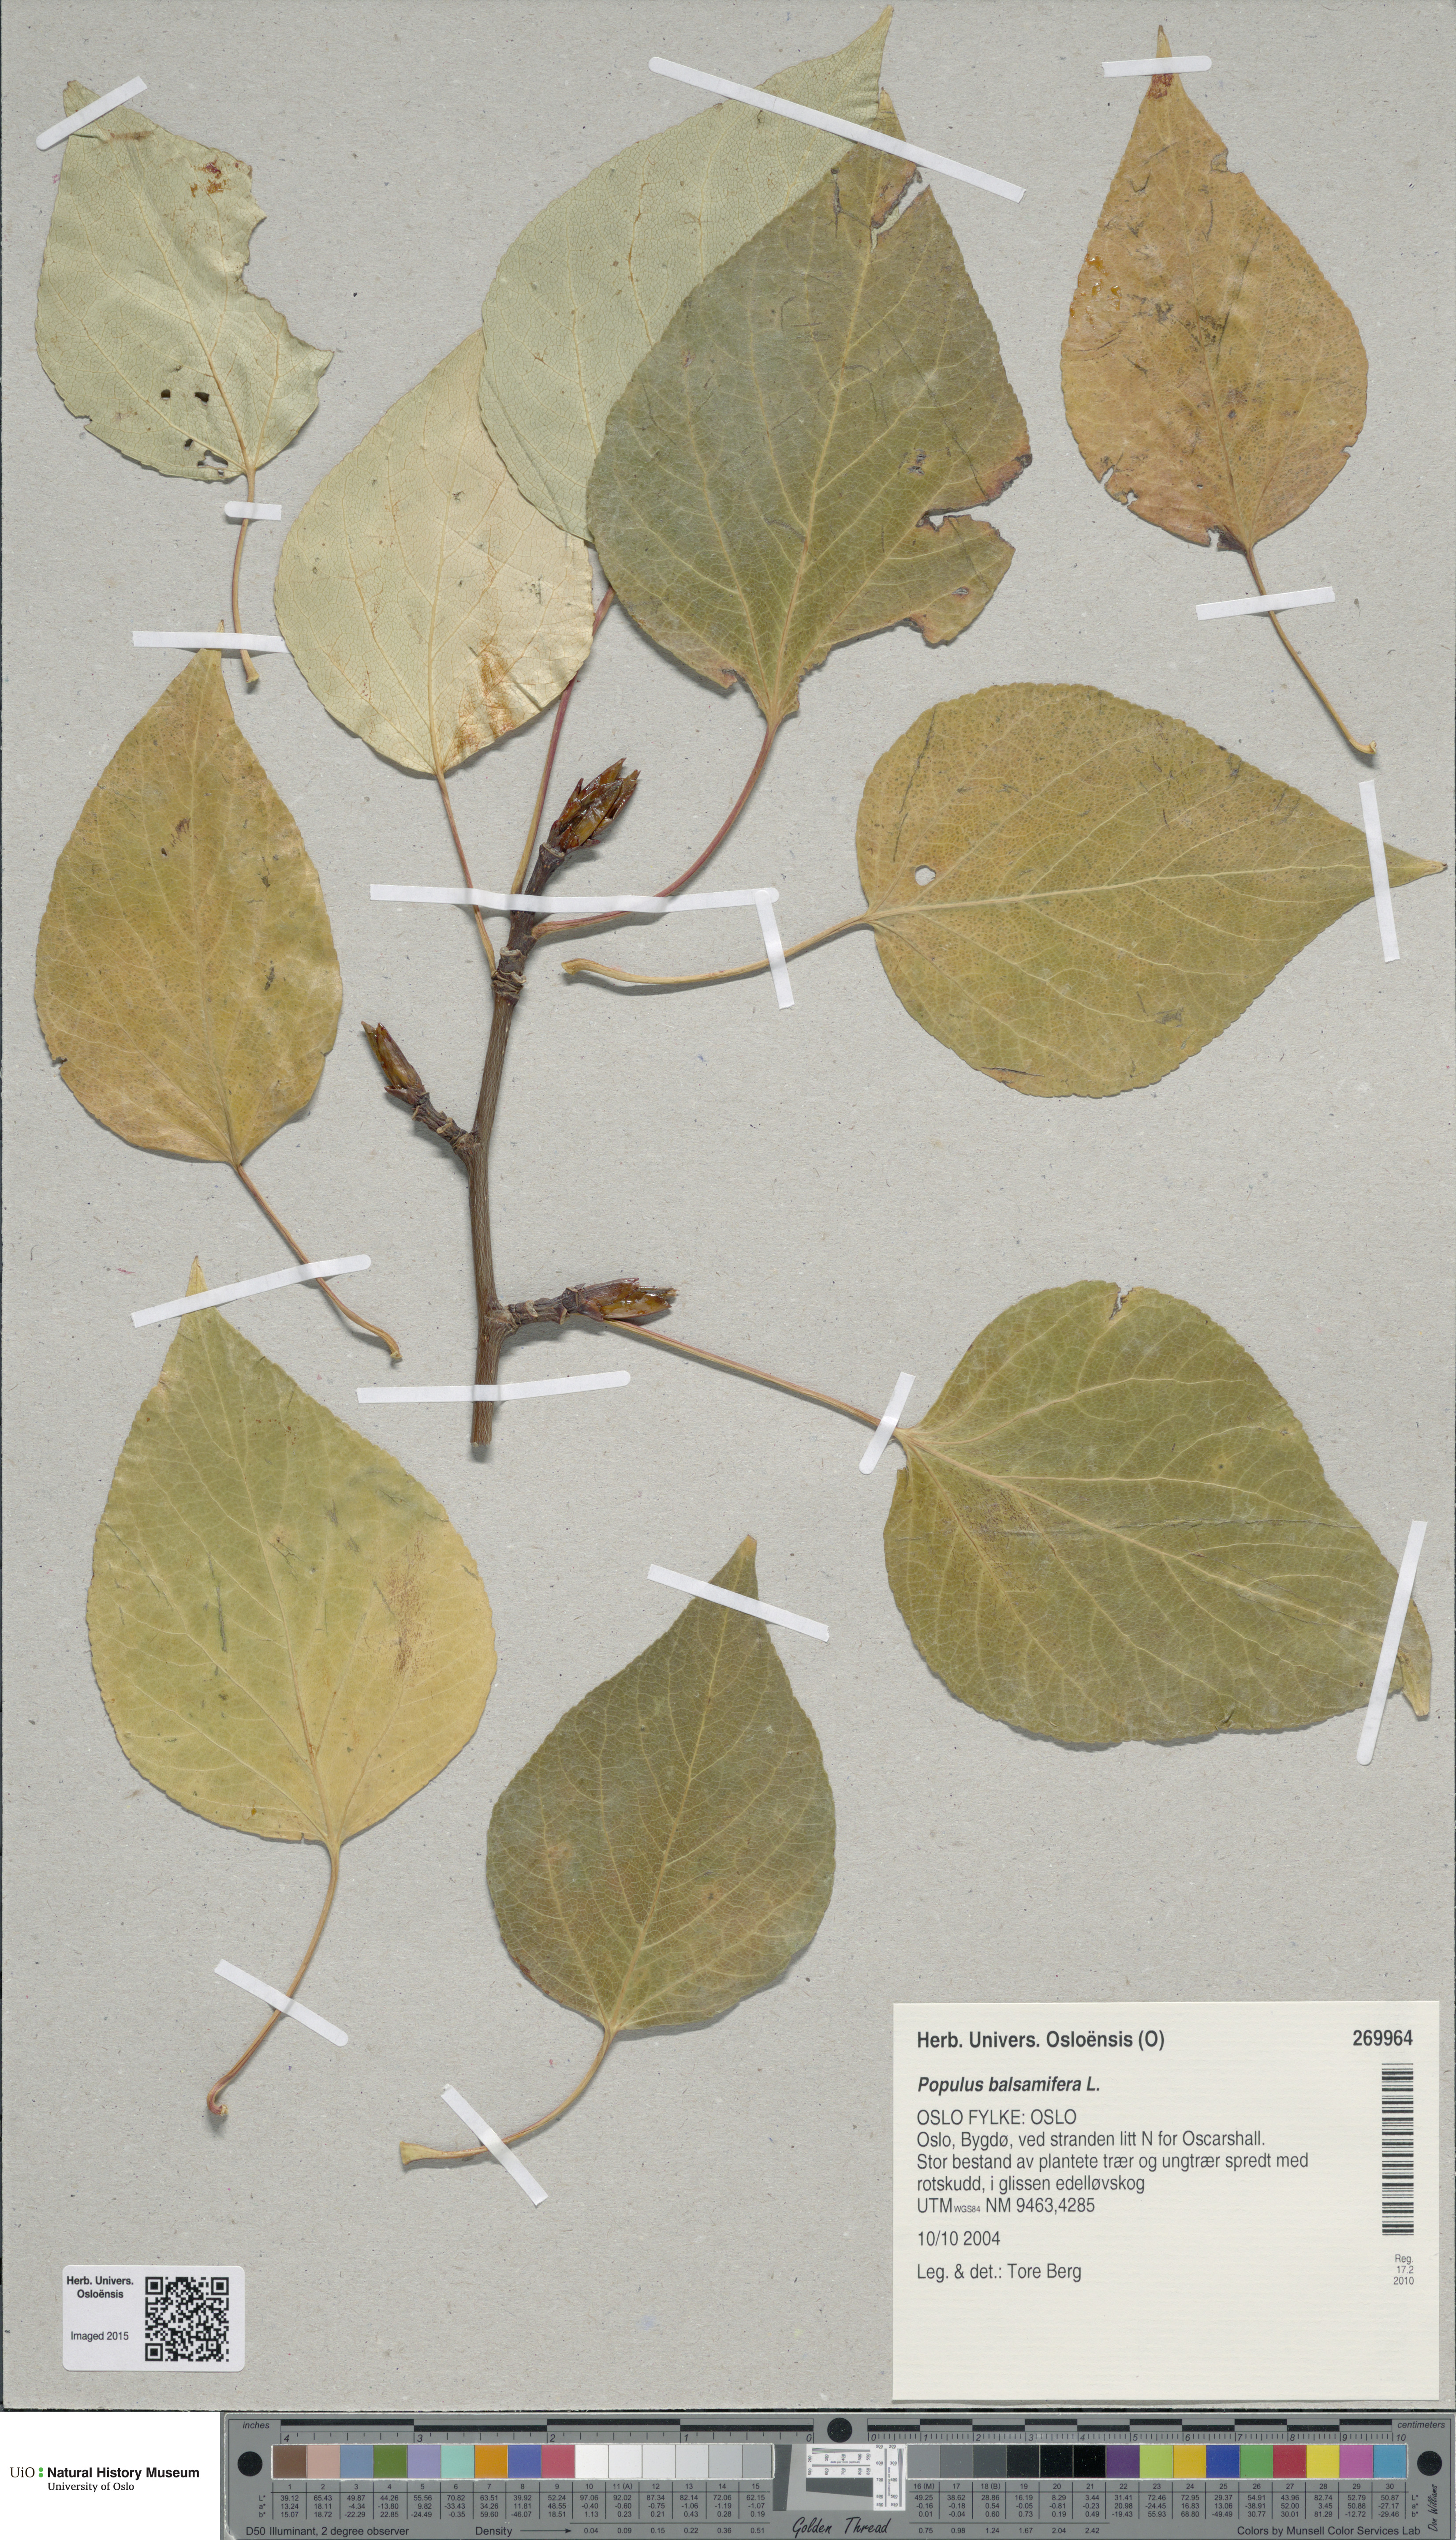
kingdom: Plantae
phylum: Tracheophyta
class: Magnoliopsida
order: Malpighiales
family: Salicaceae
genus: Populus
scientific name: Populus balsamifera
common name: Balsam poplar
